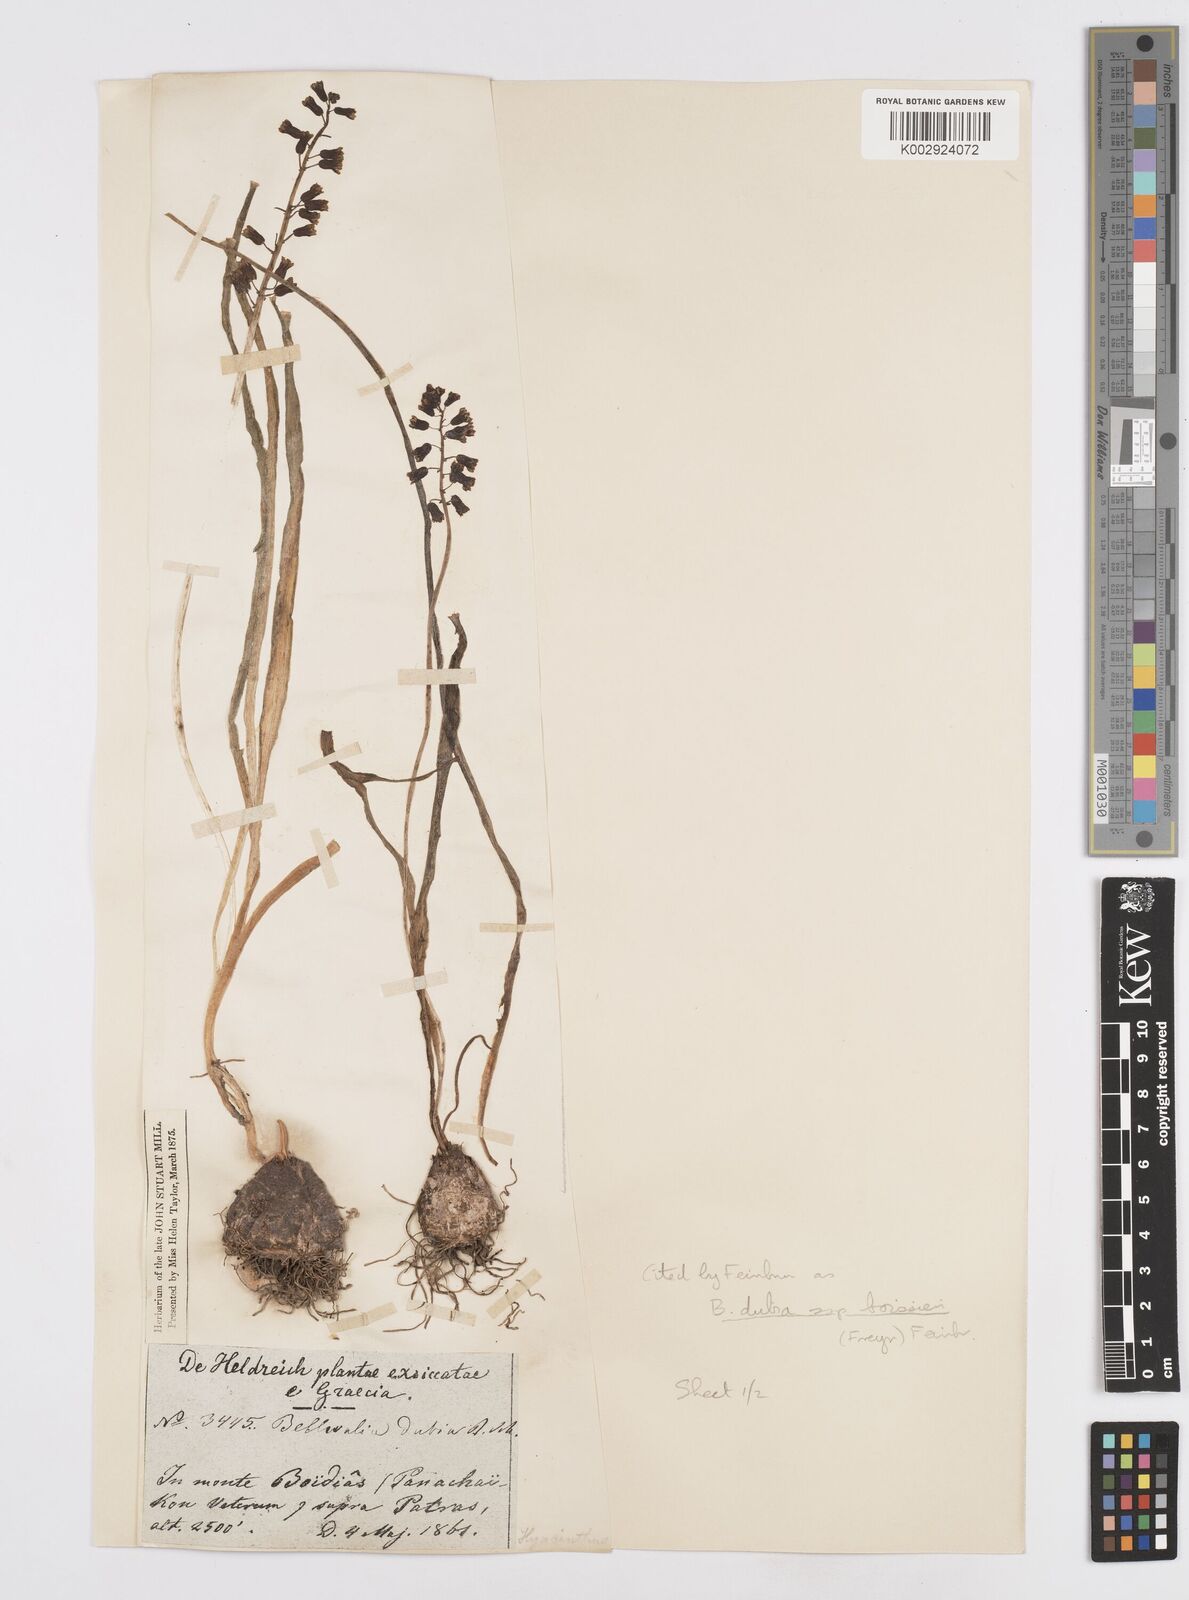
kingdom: Plantae
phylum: Tracheophyta
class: Liliopsida
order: Asparagales
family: Asparagaceae
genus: Bellevalia
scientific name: Bellevalia dubia
